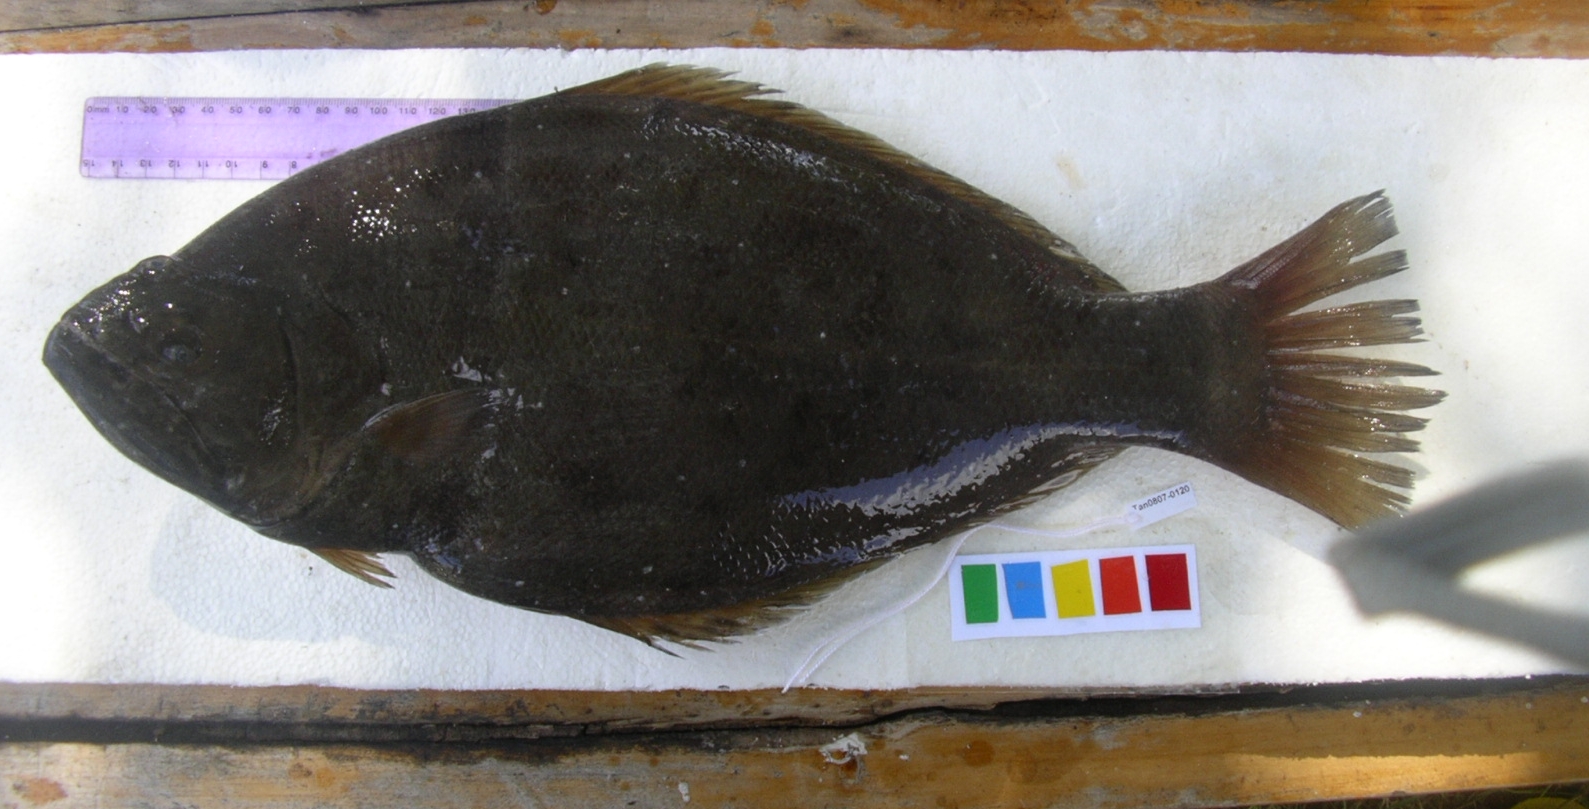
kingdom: Animalia
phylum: Chordata
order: Pleuronectiformes
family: Psettodidae
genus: Psettodes
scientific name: Psettodes erumei
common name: Indian halibut
